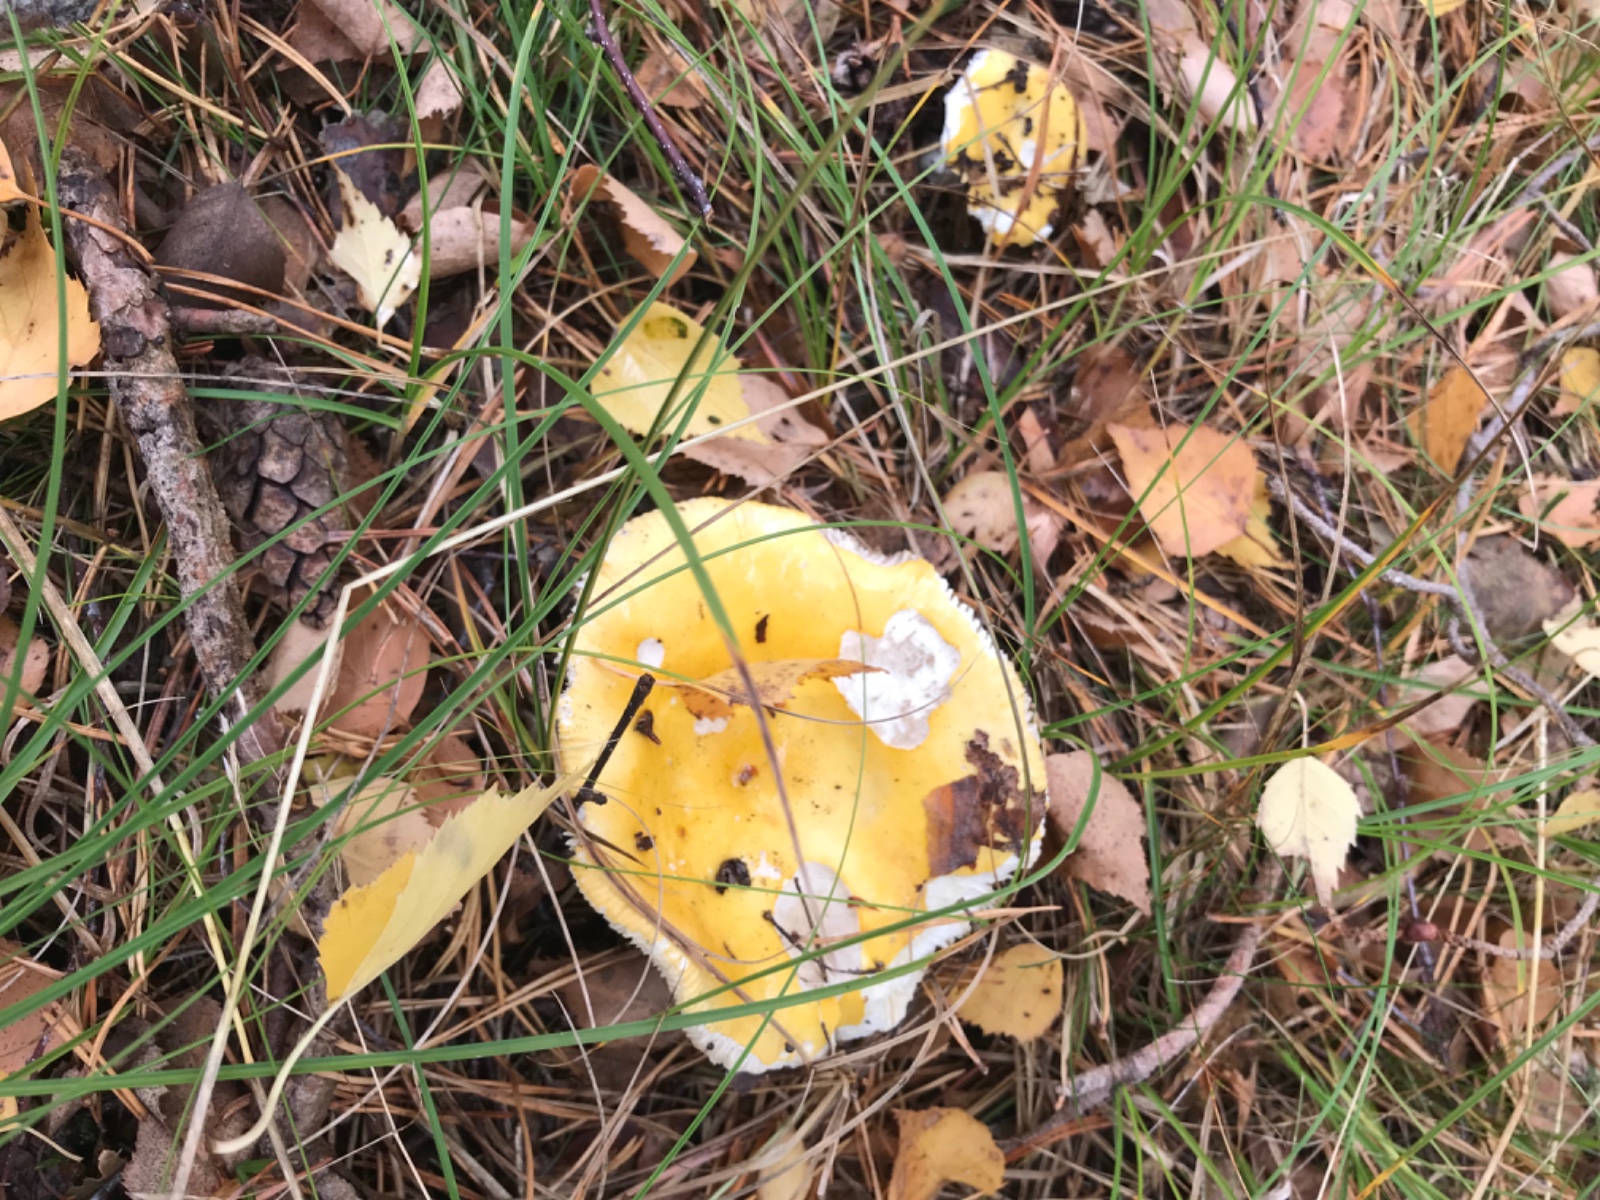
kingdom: Fungi
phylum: Basidiomycota
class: Agaricomycetes
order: Russulales
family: Russulaceae
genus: Russula
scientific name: Russula claroflava
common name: birke-skørhat
